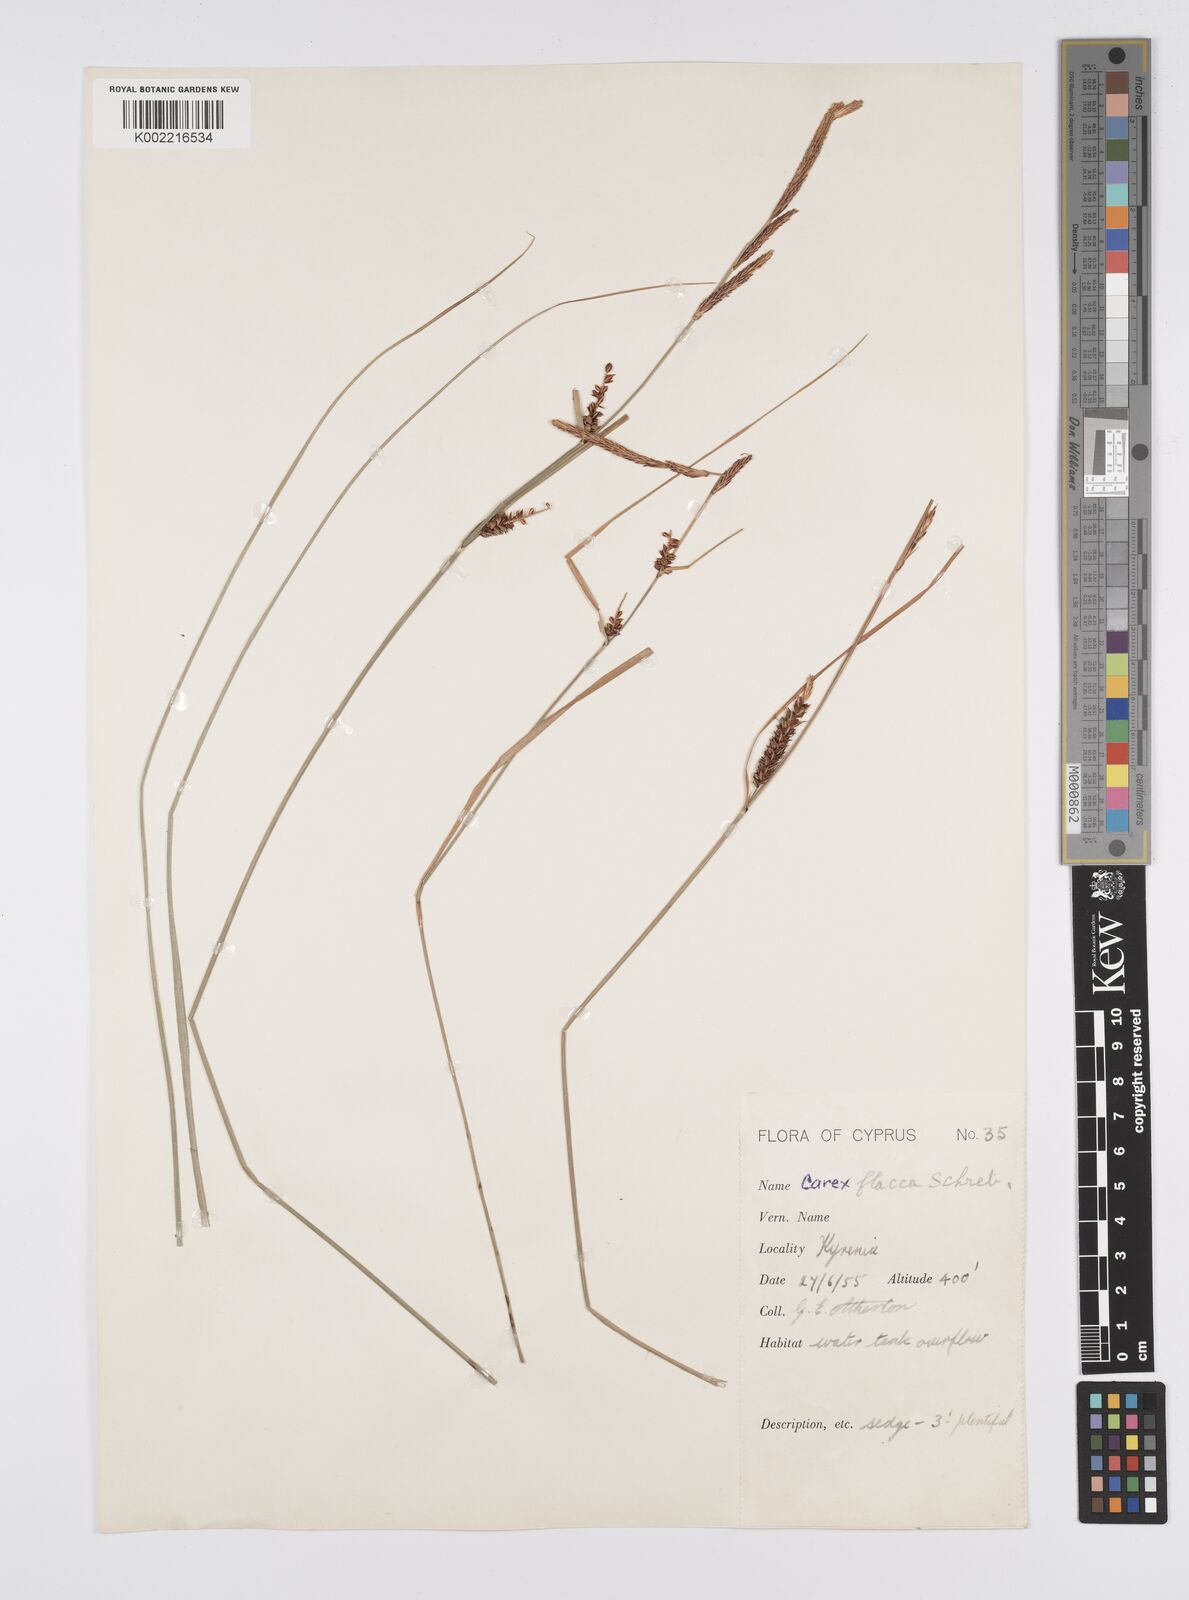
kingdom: Plantae
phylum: Tracheophyta
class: Liliopsida
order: Poales
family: Cyperaceae
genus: Carex
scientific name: Carex flacca
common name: Glaucous sedge
